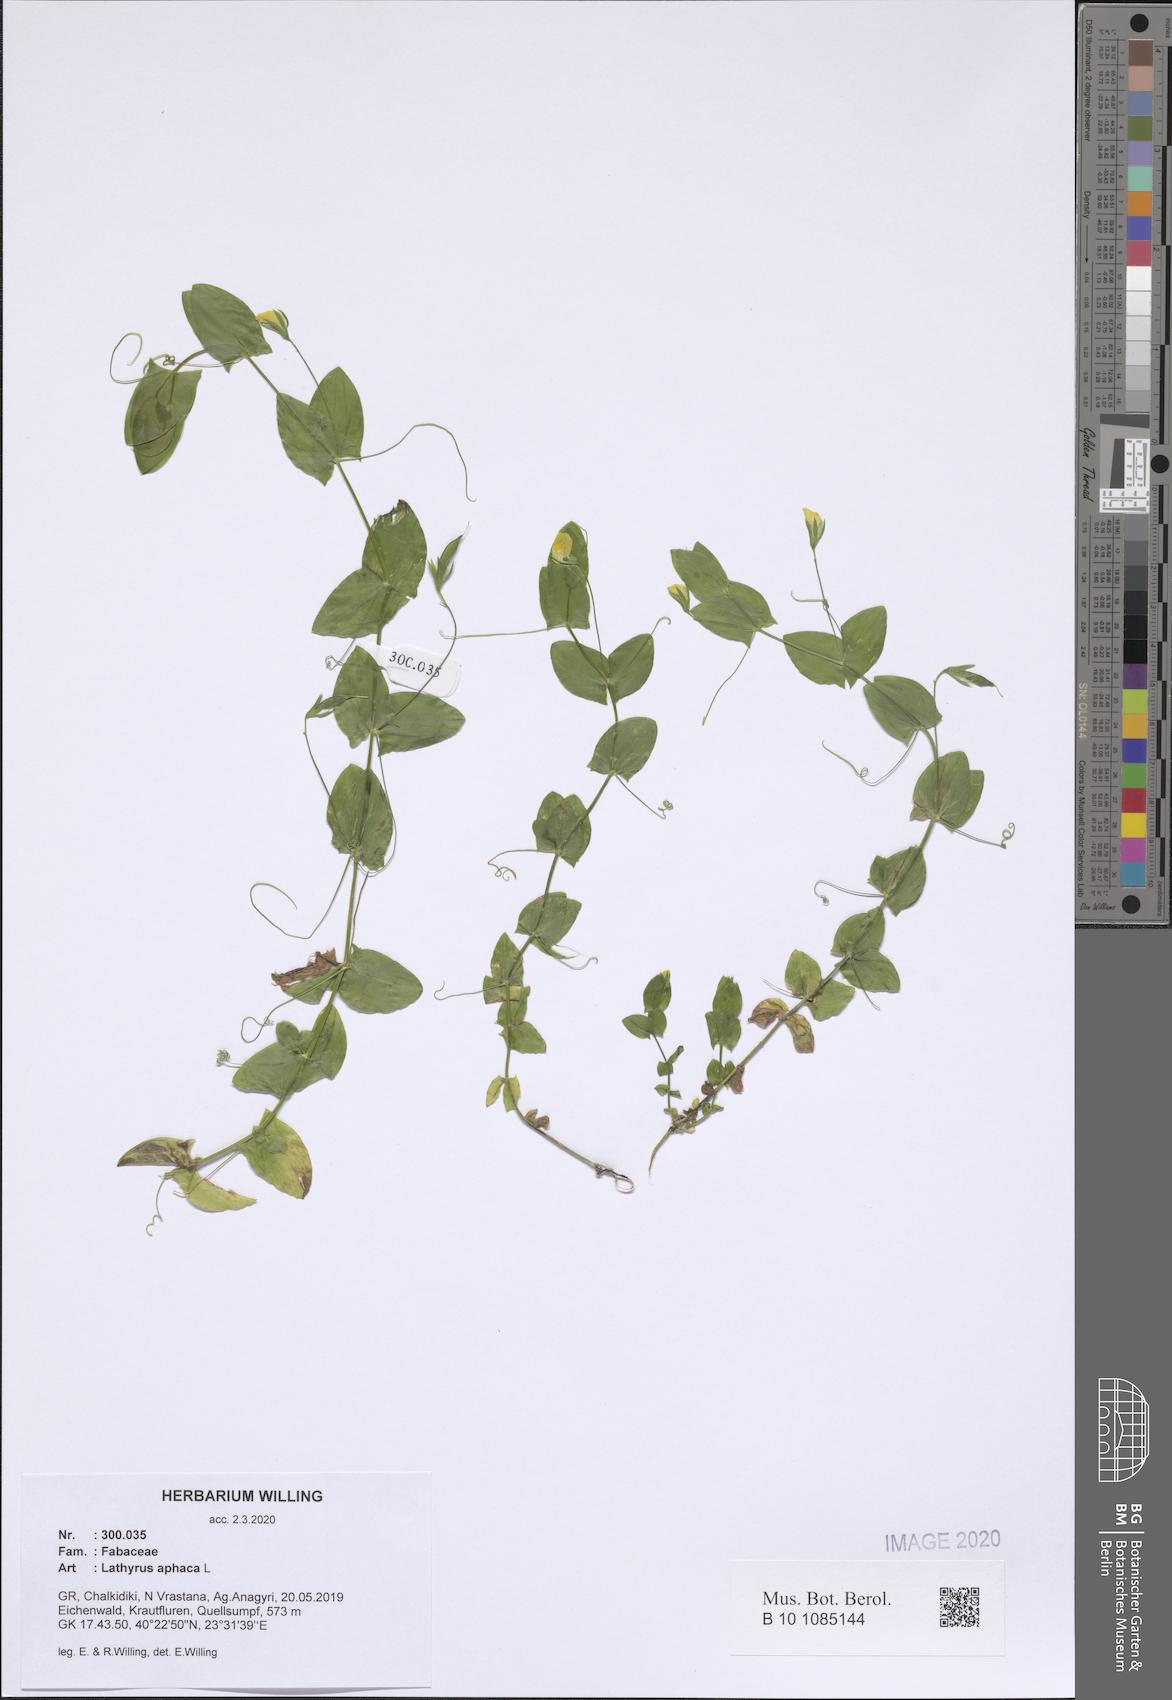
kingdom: Plantae
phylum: Tracheophyta
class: Magnoliopsida
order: Fabales
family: Fabaceae
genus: Lathyrus
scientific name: Lathyrus aphaca
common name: Yellow vetchling
